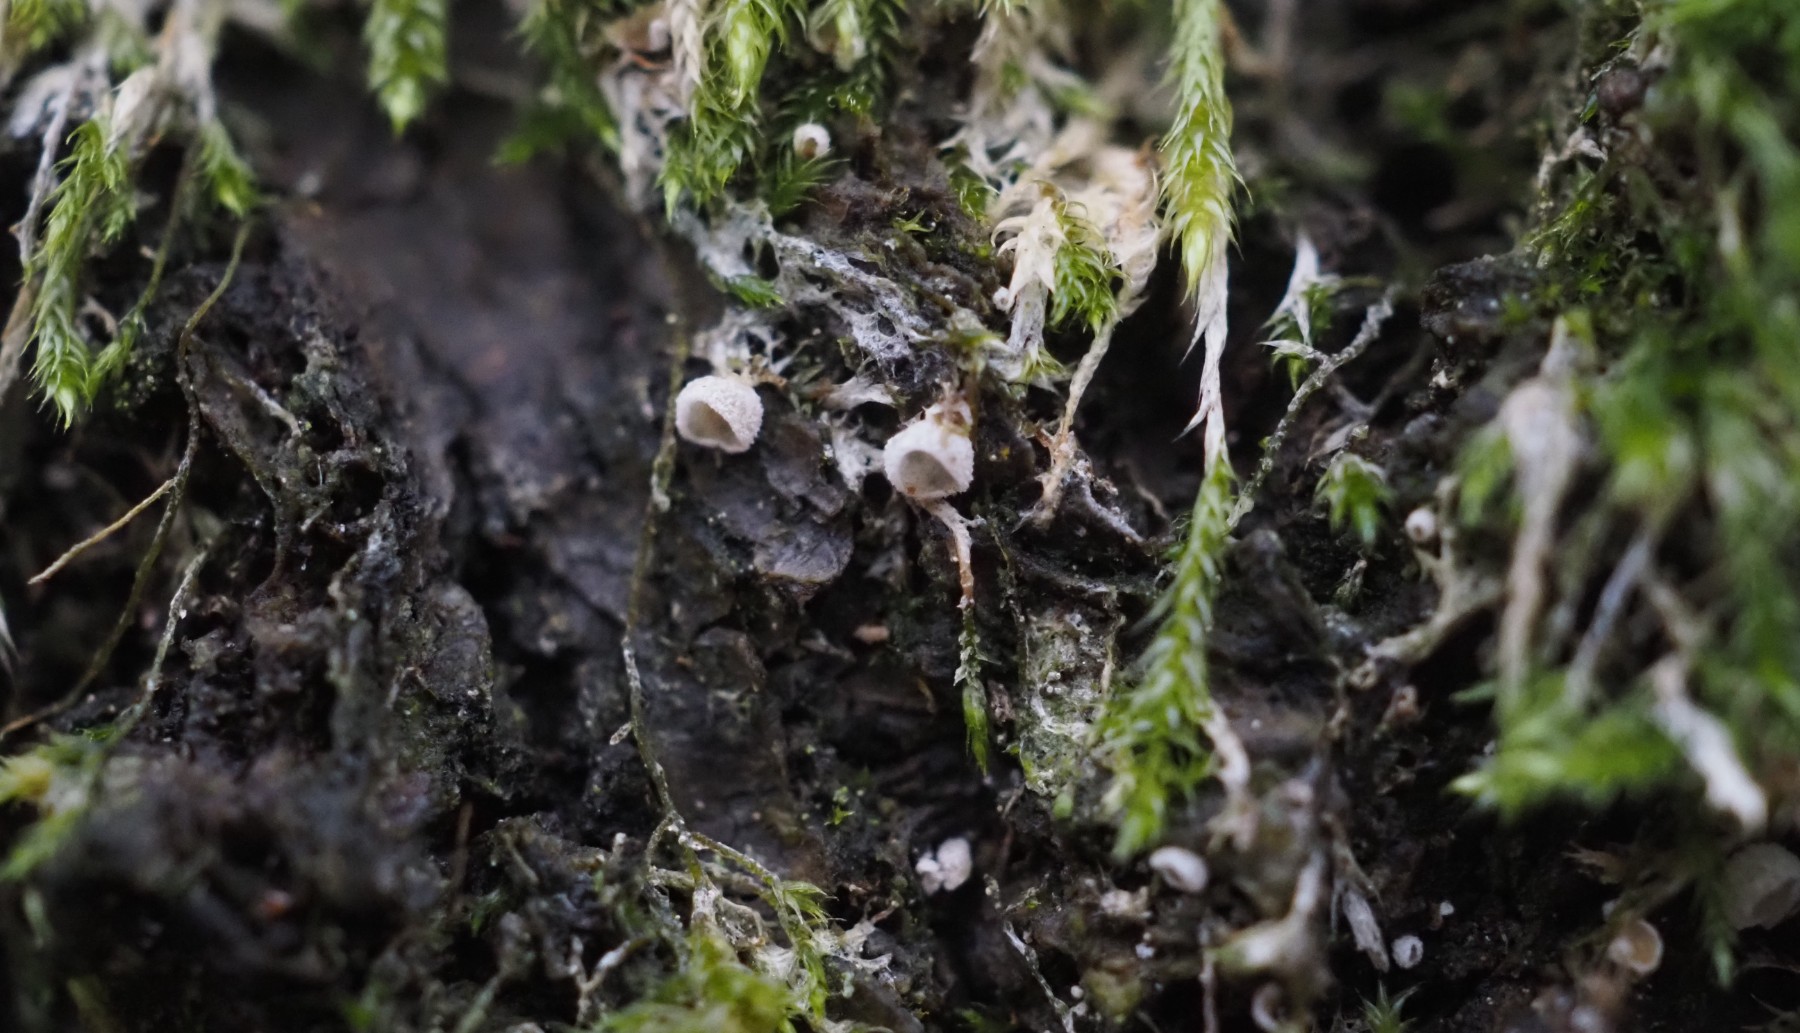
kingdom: Fungi
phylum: Basidiomycota
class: Agaricomycetes
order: Agaricales
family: Chromocyphellaceae
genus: Chromocyphella
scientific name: Chromocyphella muscicola
